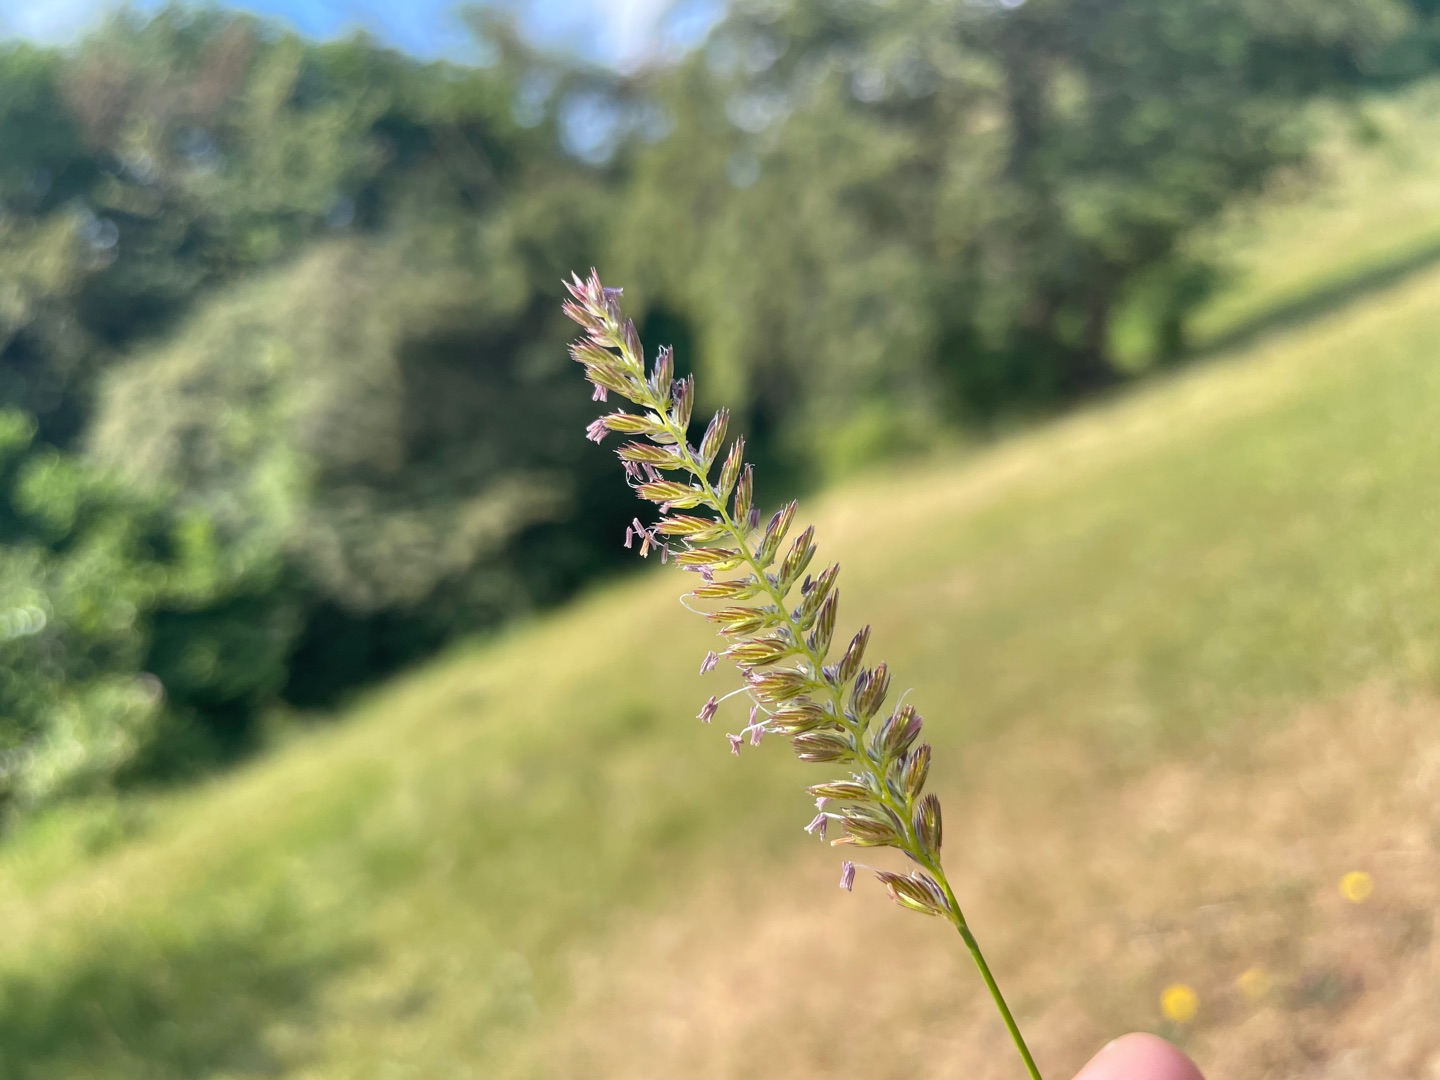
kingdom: Plantae
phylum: Tracheophyta
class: Liliopsida
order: Poales
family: Poaceae
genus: Cynosurus
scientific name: Cynosurus cristatus
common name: Kamgræs
